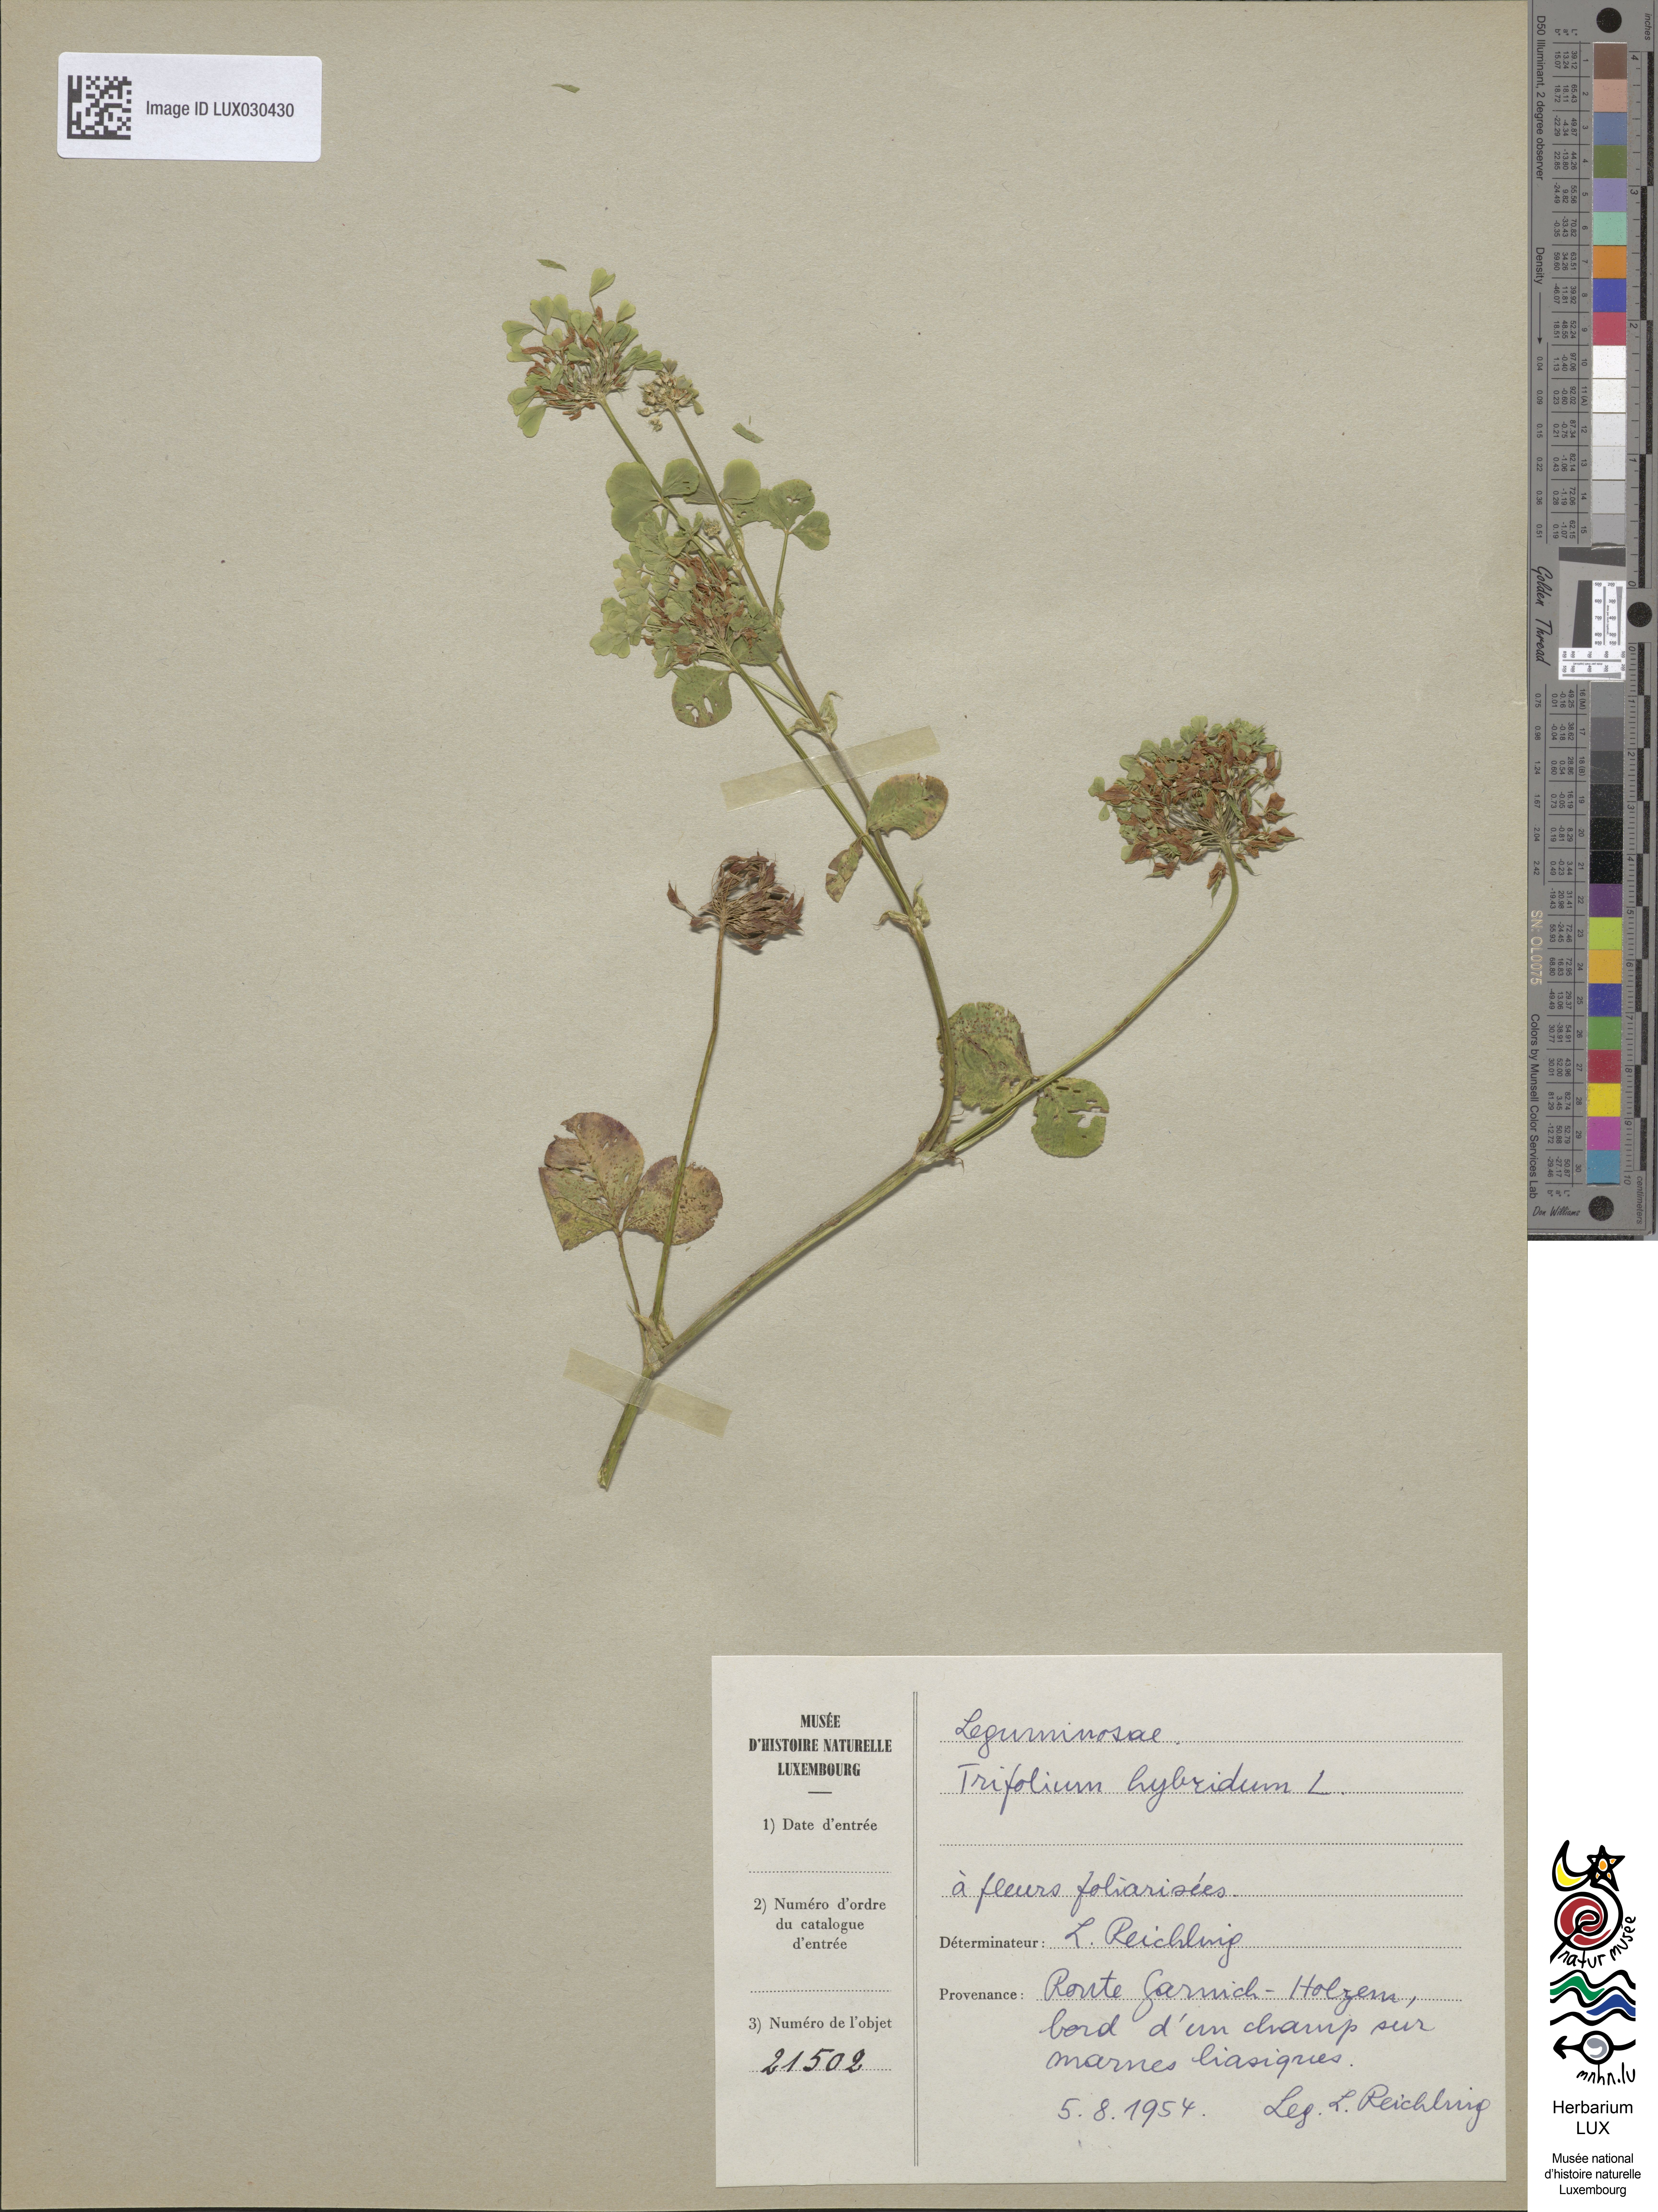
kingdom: Plantae
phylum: Tracheophyta
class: Magnoliopsida
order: Fabales
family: Fabaceae
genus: Trifolium
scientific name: Trifolium hybridum
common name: Alsike clover
